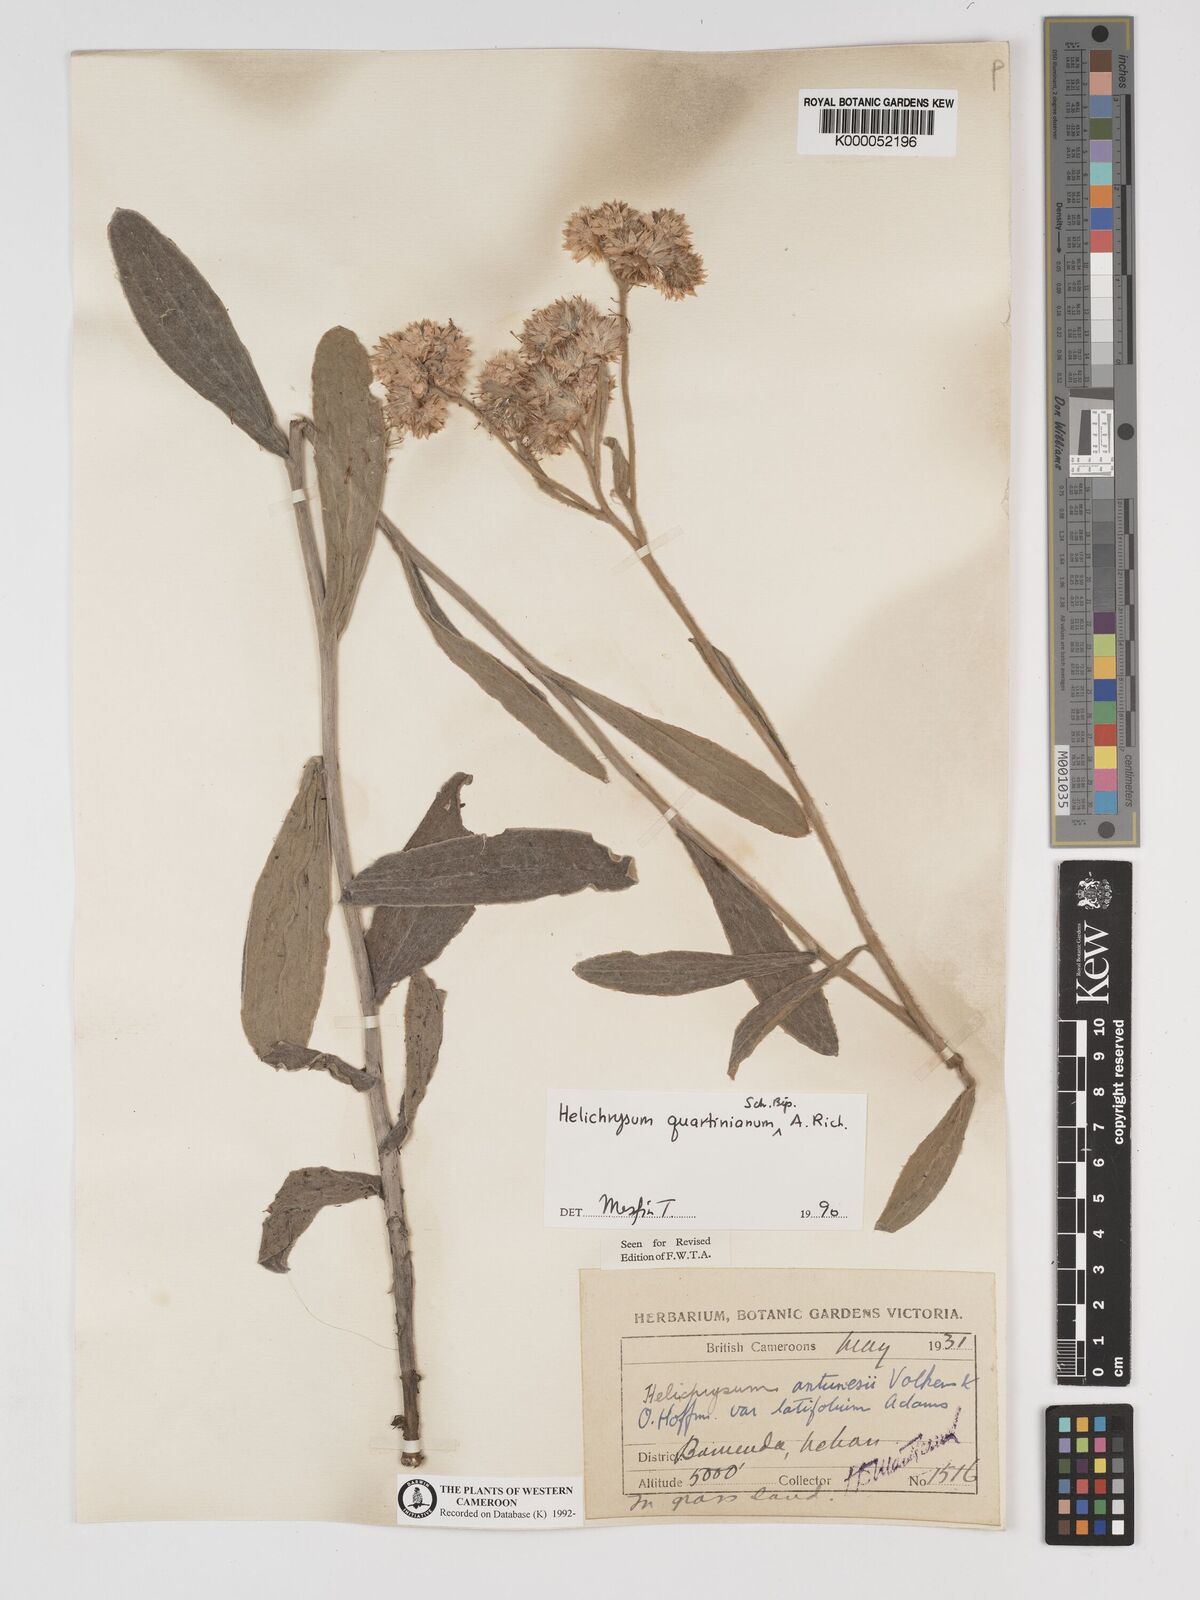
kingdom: Plantae
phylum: Tracheophyta
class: Magnoliopsida
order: Asterales
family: Asteraceae
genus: Helichrysum
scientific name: Helichrysum quartinianum
